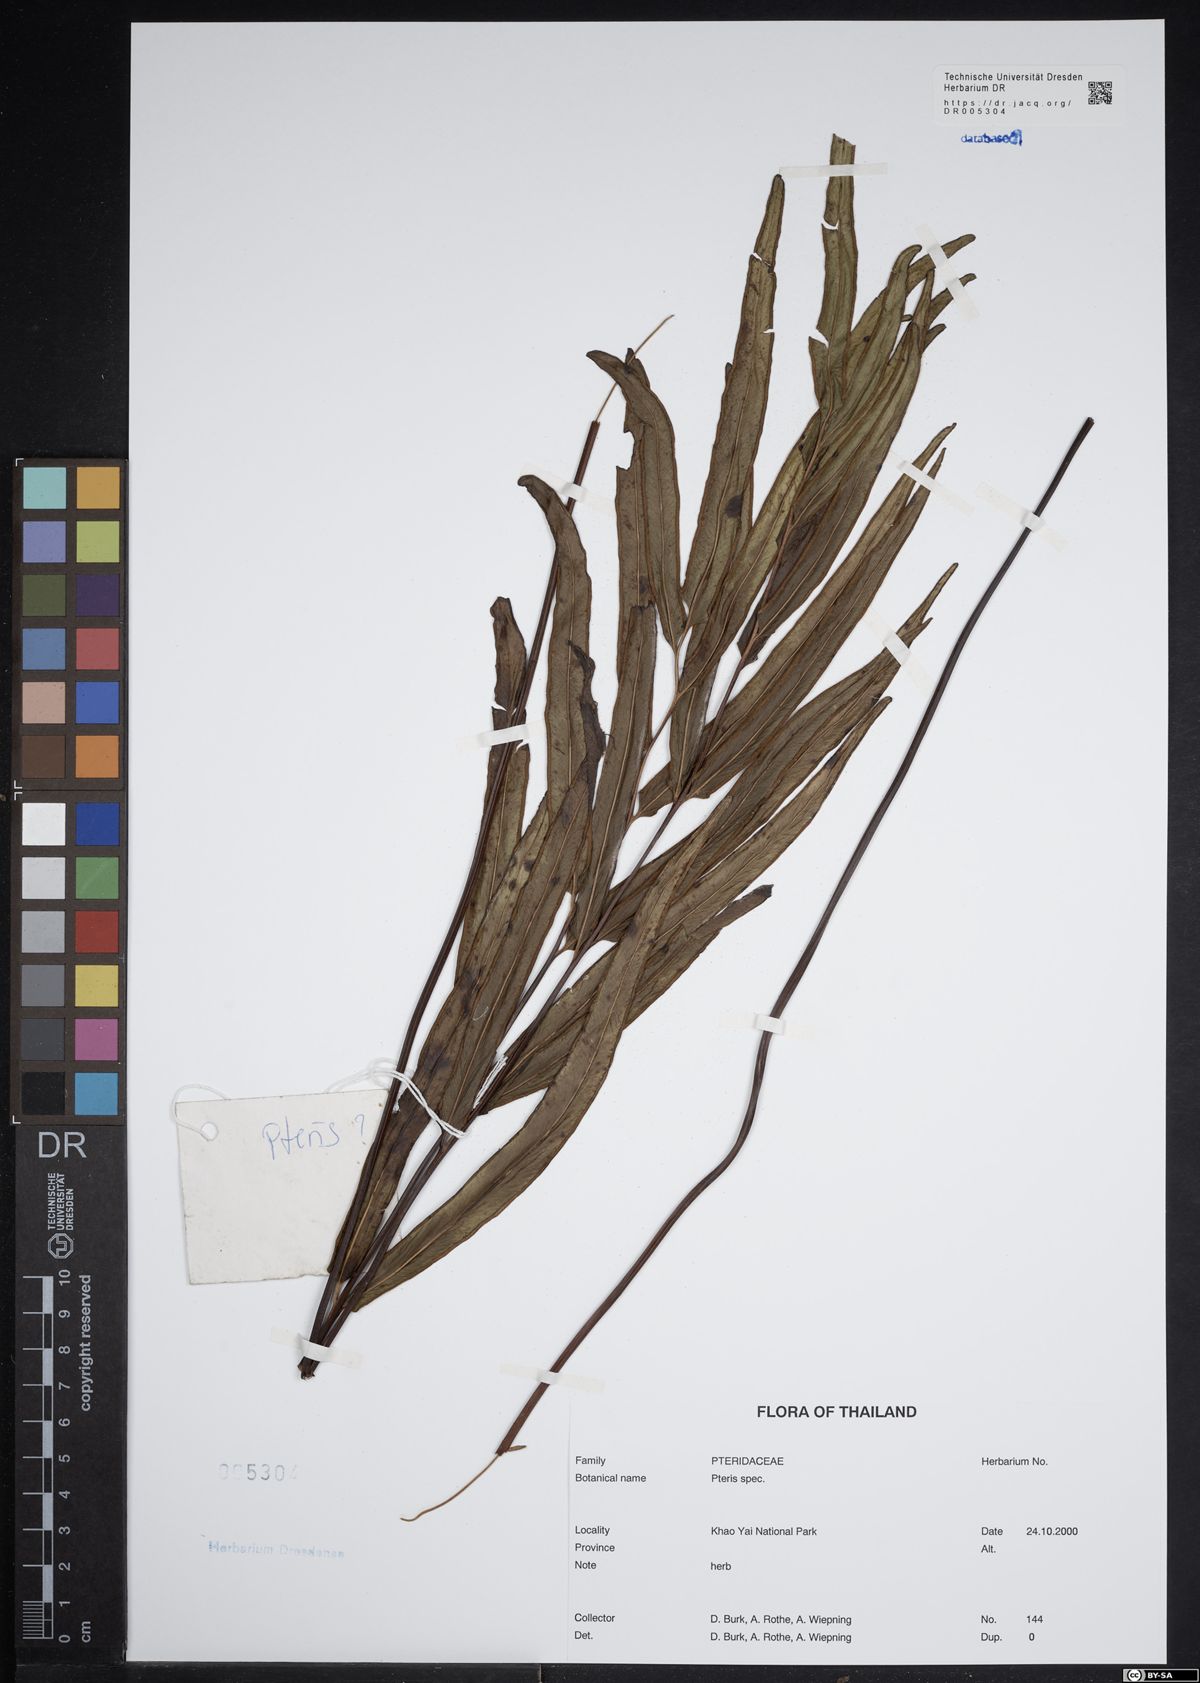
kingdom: Plantae
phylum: Tracheophyta
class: Polypodiopsida
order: Polypodiales
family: Pteridaceae
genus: Pteris
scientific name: Pteris
